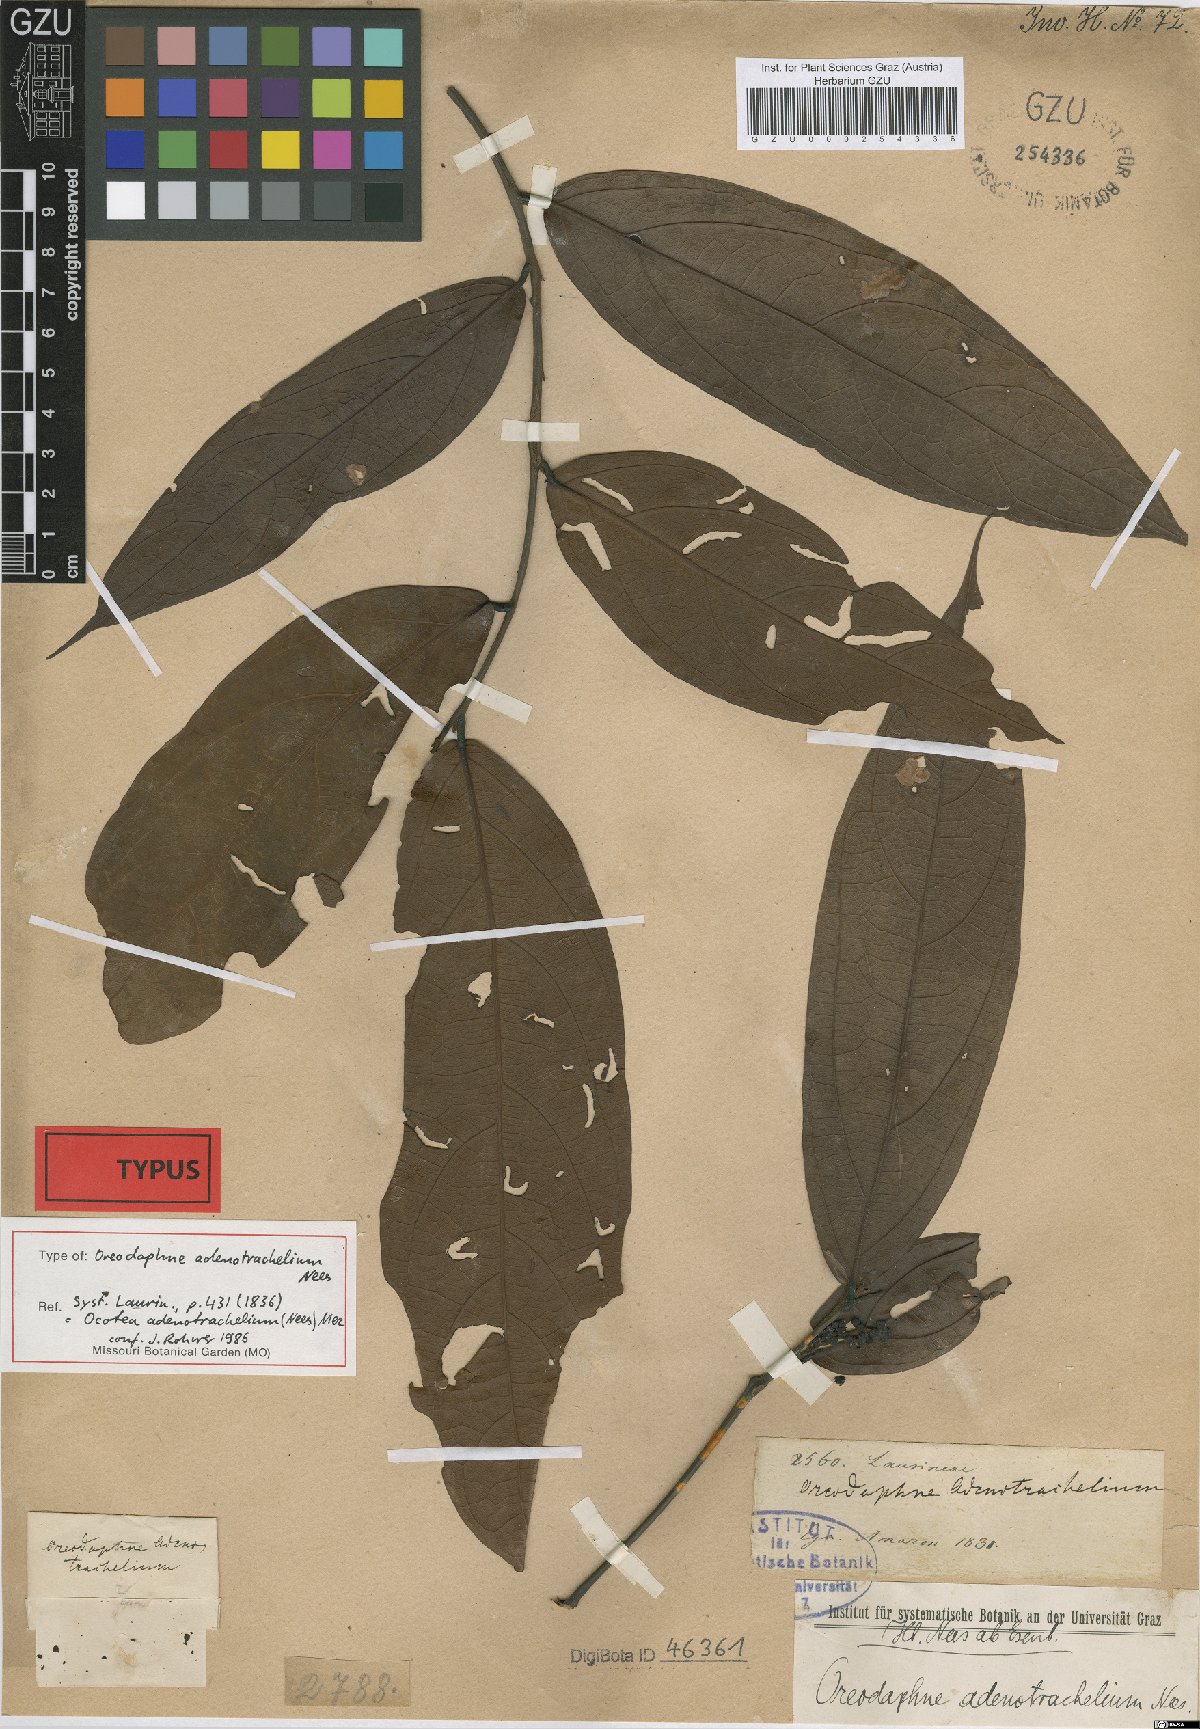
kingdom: Plantae
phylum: Tracheophyta
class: Magnoliopsida
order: Laurales
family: Lauraceae
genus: Ocotea
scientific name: Ocotea adenotrachelium
